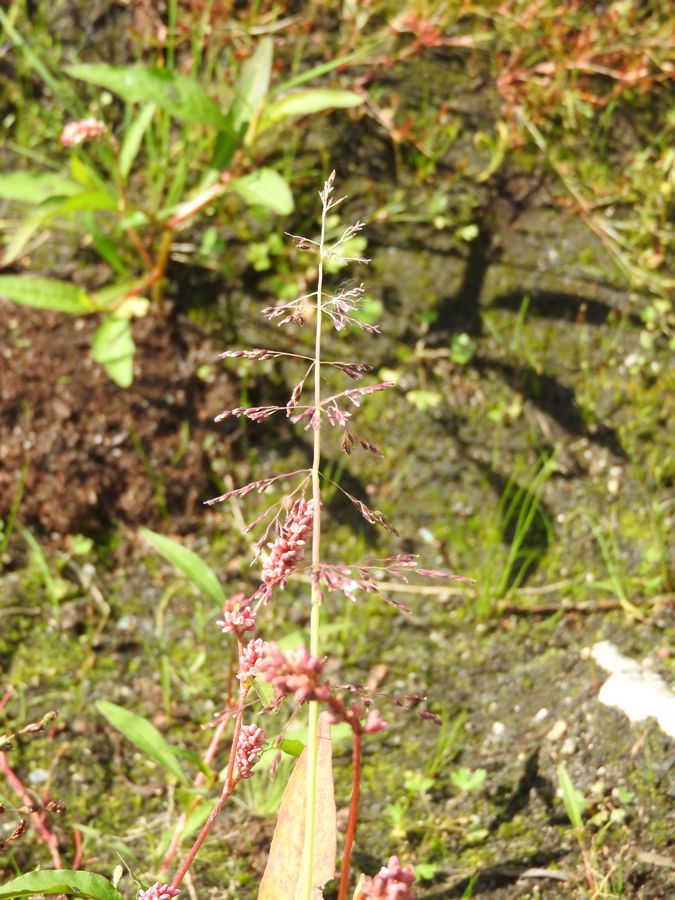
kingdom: Plantae
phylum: Tracheophyta
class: Liliopsida
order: Poales
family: Poaceae
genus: Catabrosa
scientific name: Catabrosa aquatica
